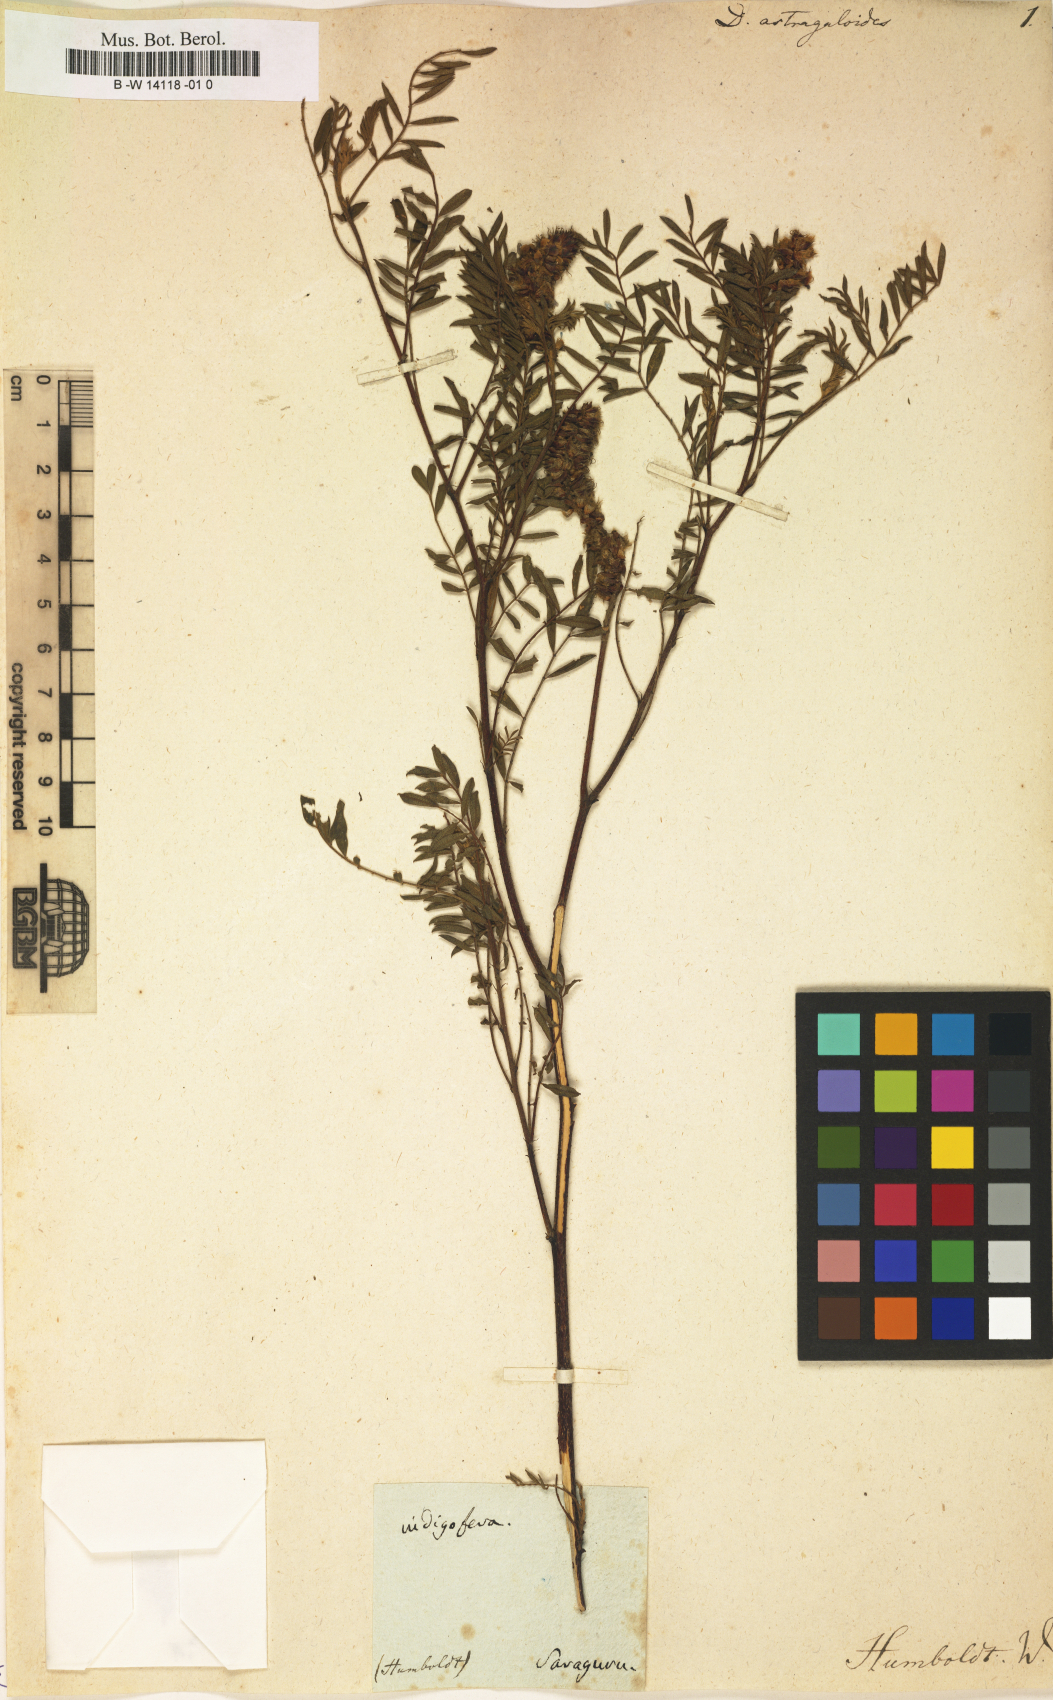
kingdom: Plantae
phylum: Tracheophyta
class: Magnoliopsida
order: Fabales
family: Fabaceae
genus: Dalea
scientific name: Dalea
